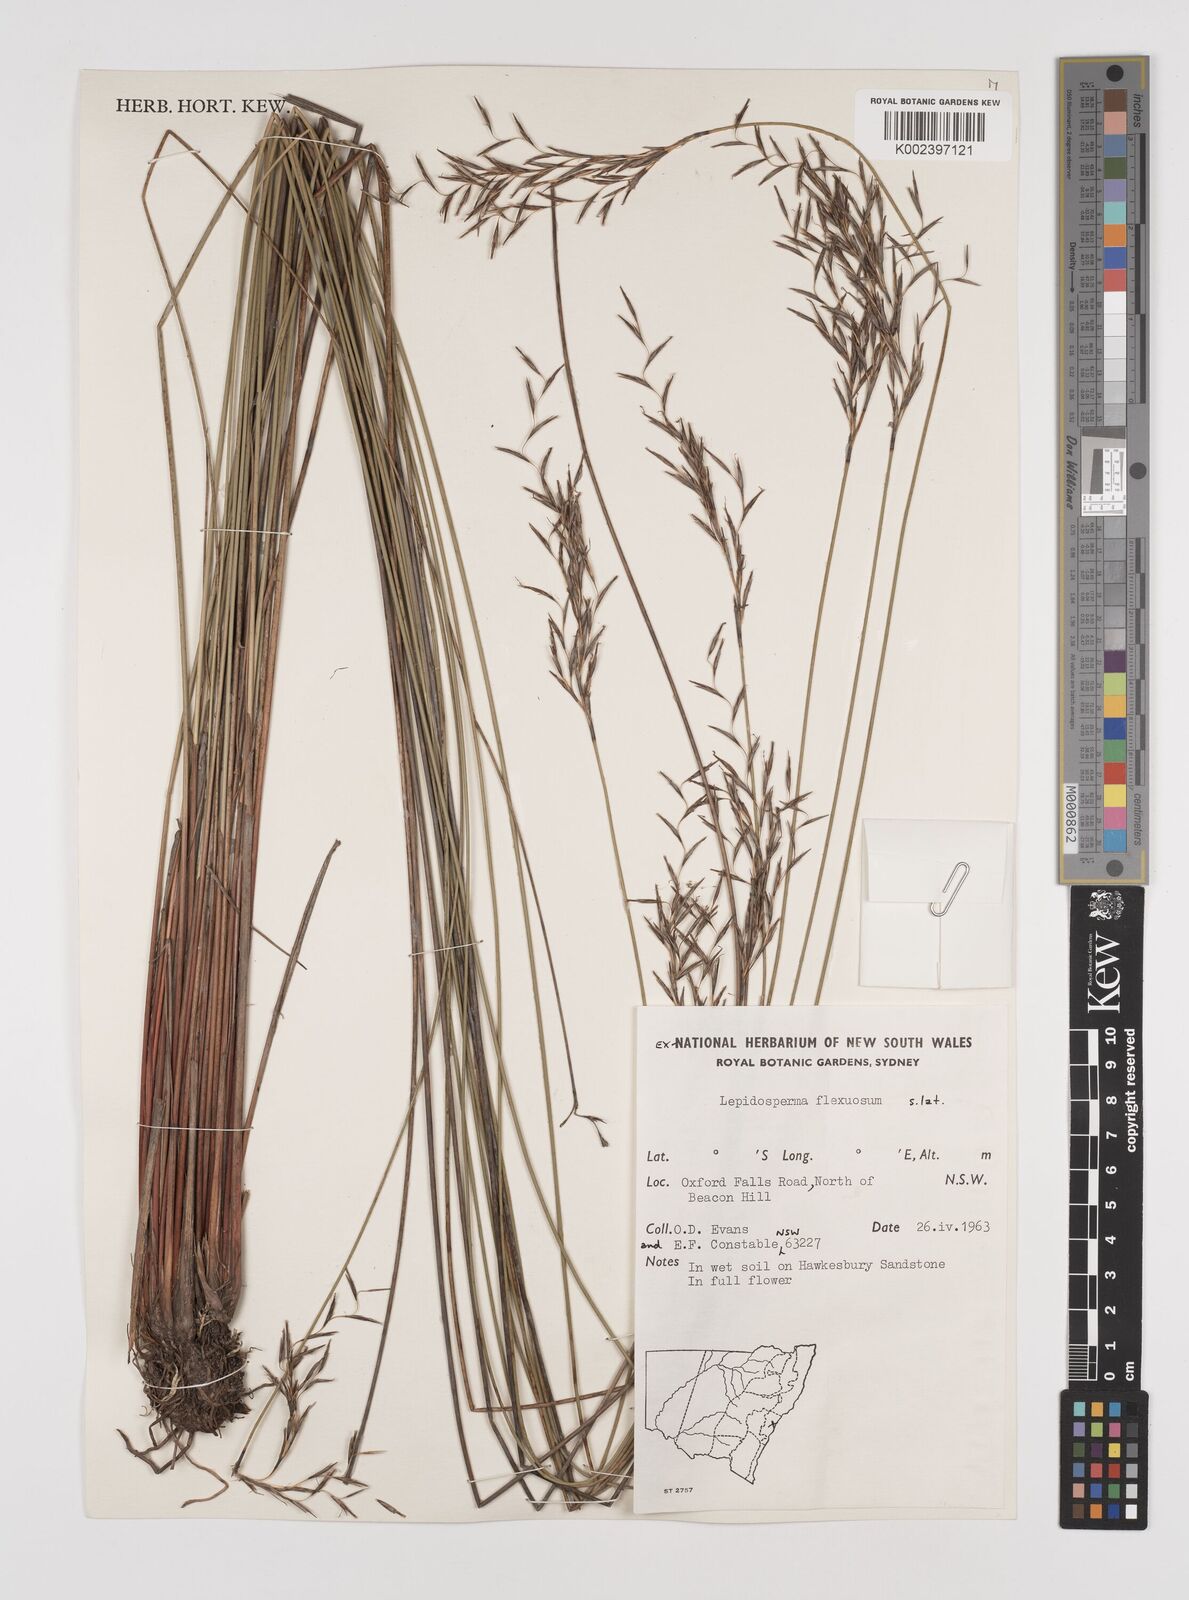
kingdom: Plantae
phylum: Tracheophyta
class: Liliopsida
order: Poales
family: Cyperaceae
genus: Lepidosperma
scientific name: Lepidosperma flexuosum
